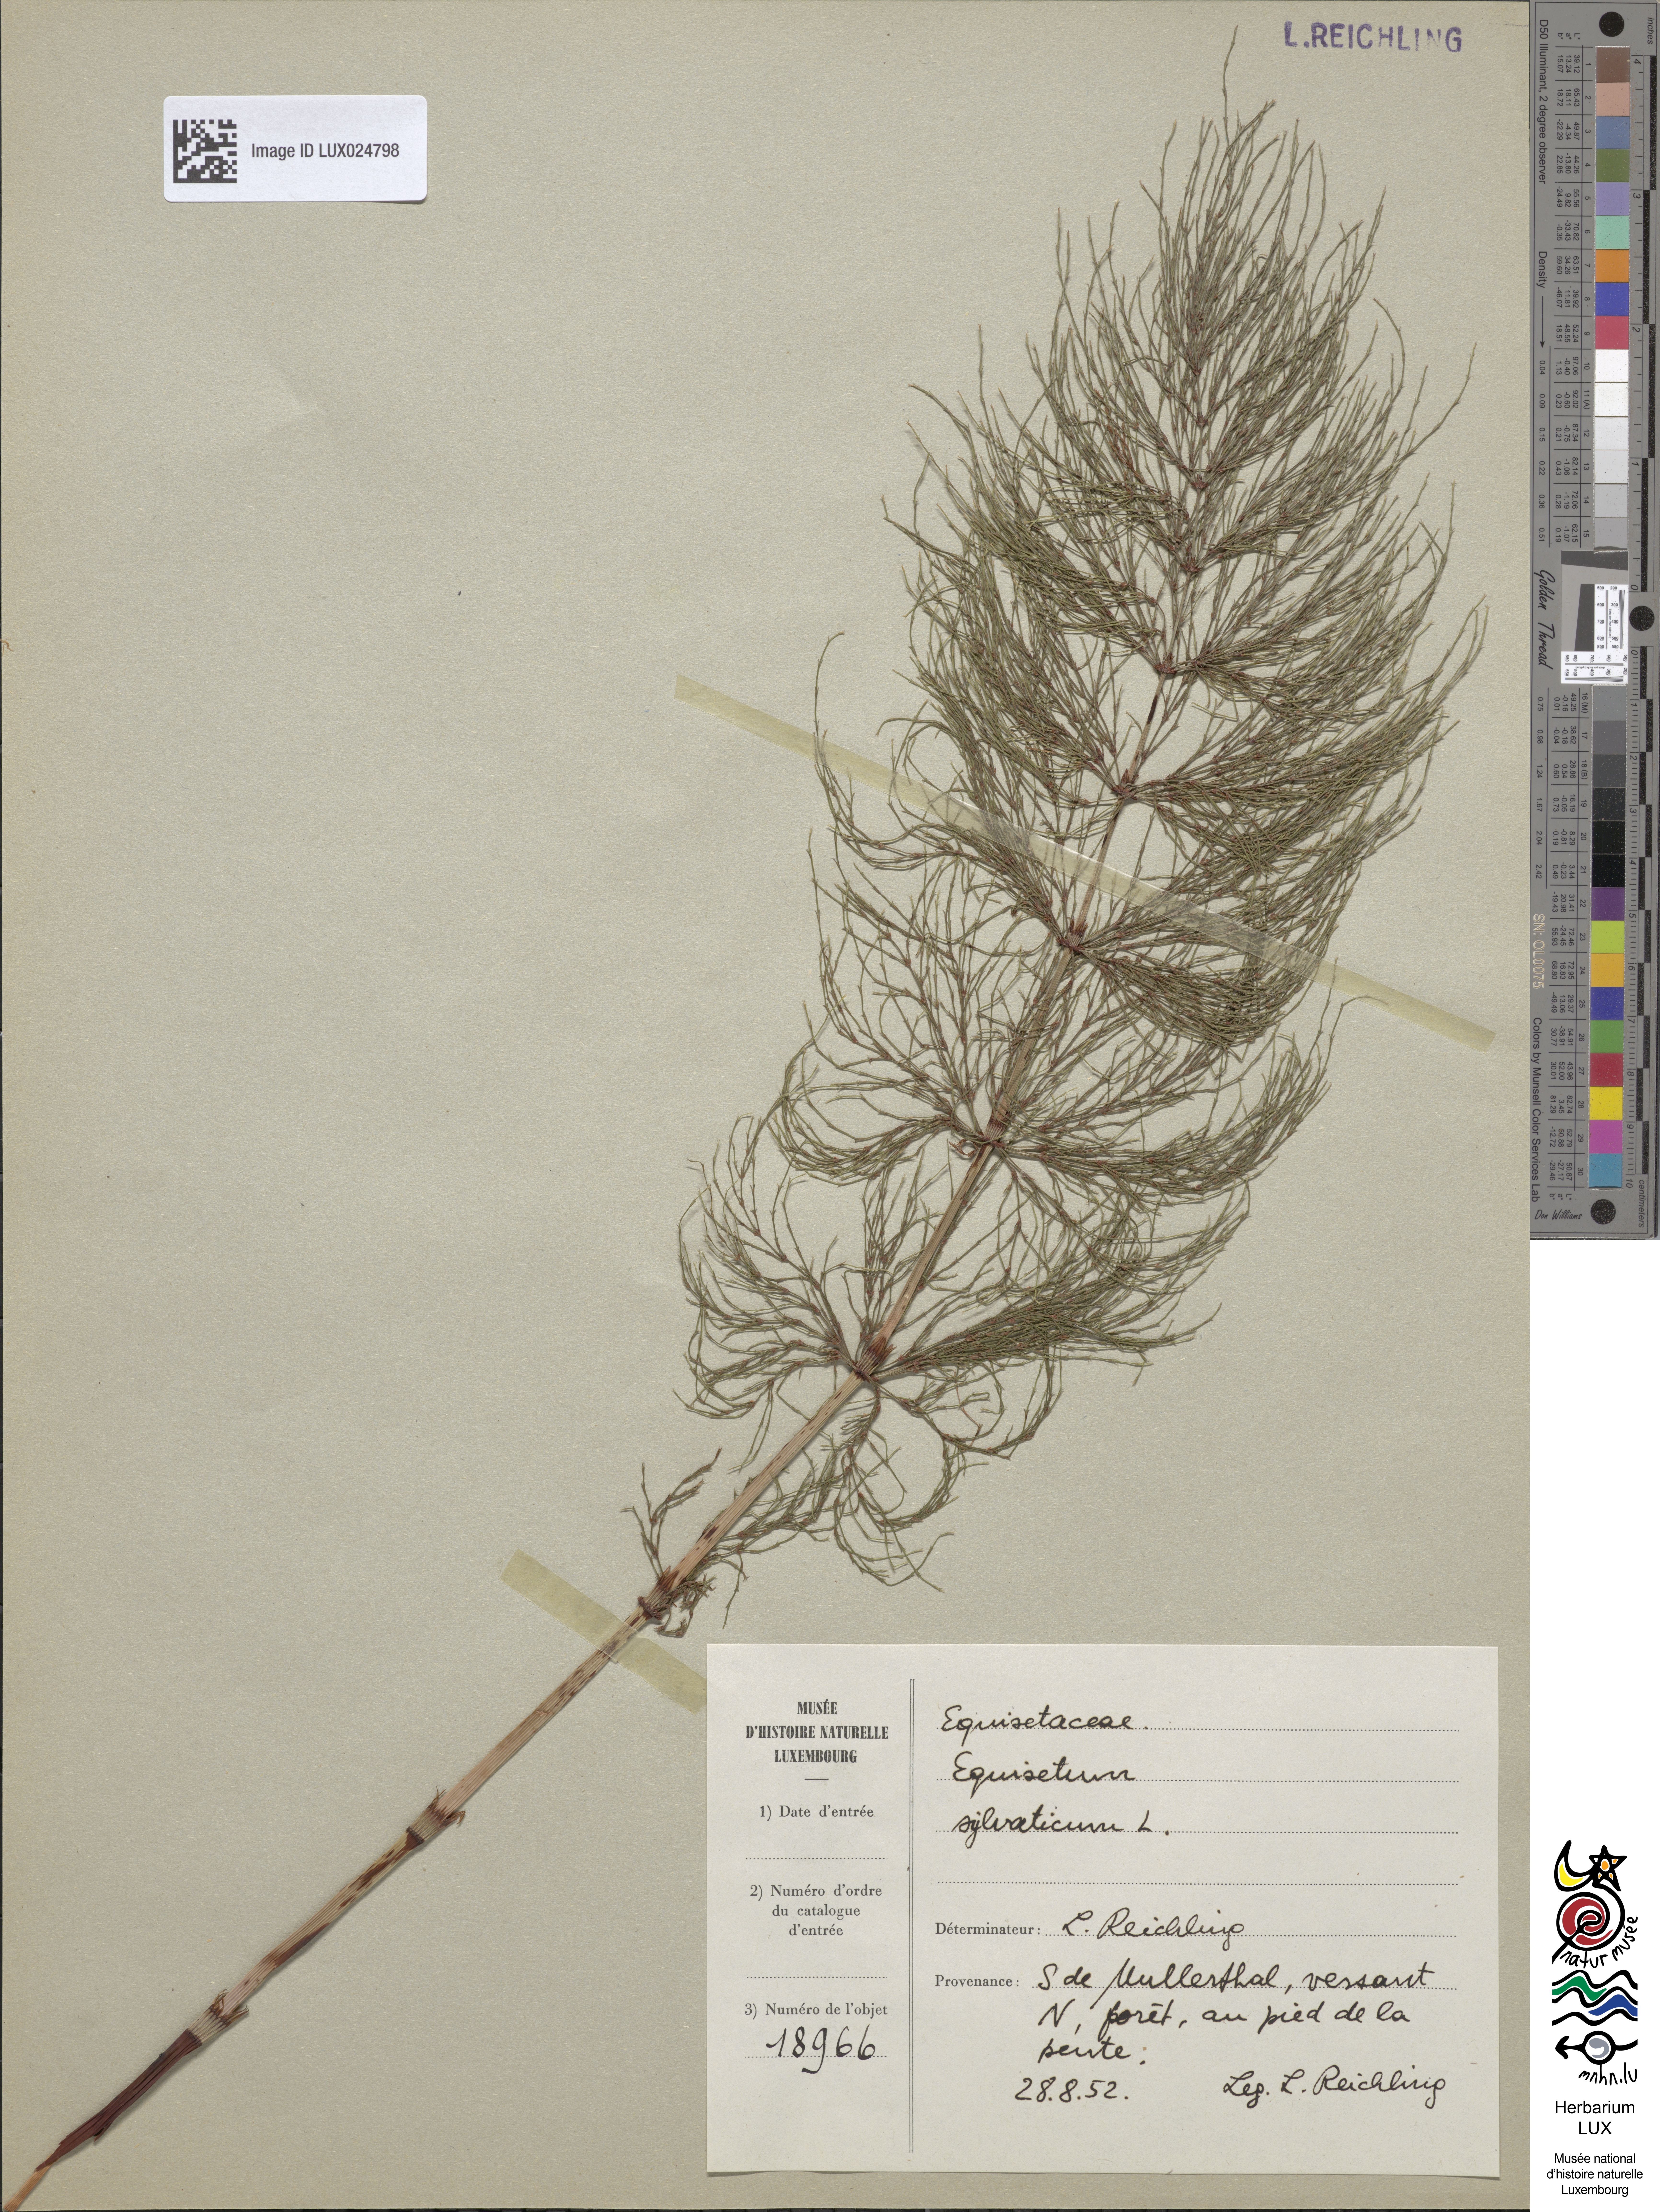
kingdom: Plantae
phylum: Tracheophyta
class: Polypodiopsida
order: Equisetales
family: Equisetaceae
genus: Equisetum
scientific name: Equisetum sylvaticum
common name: Wood horsetail
